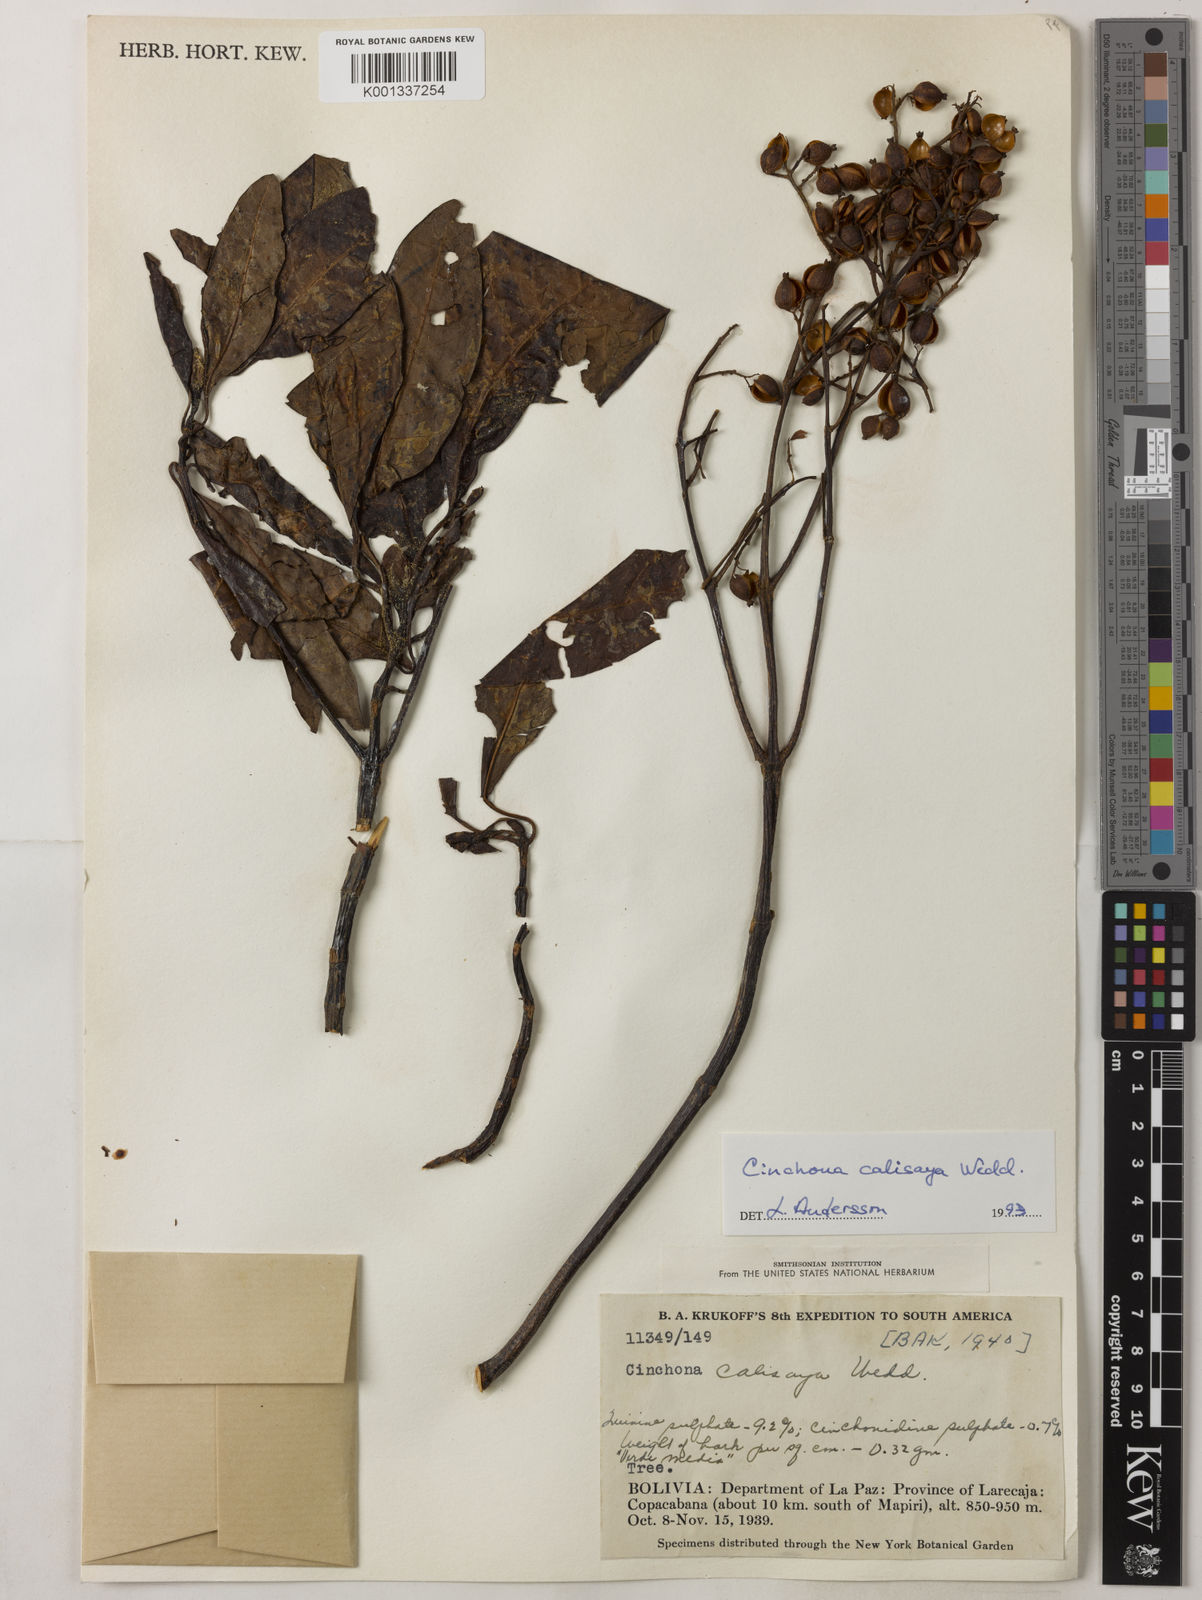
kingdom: Plantae
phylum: Tracheophyta
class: Magnoliopsida
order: Gentianales
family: Rubiaceae
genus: Cinchona
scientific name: Cinchona calisaya
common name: Ledgerbark
